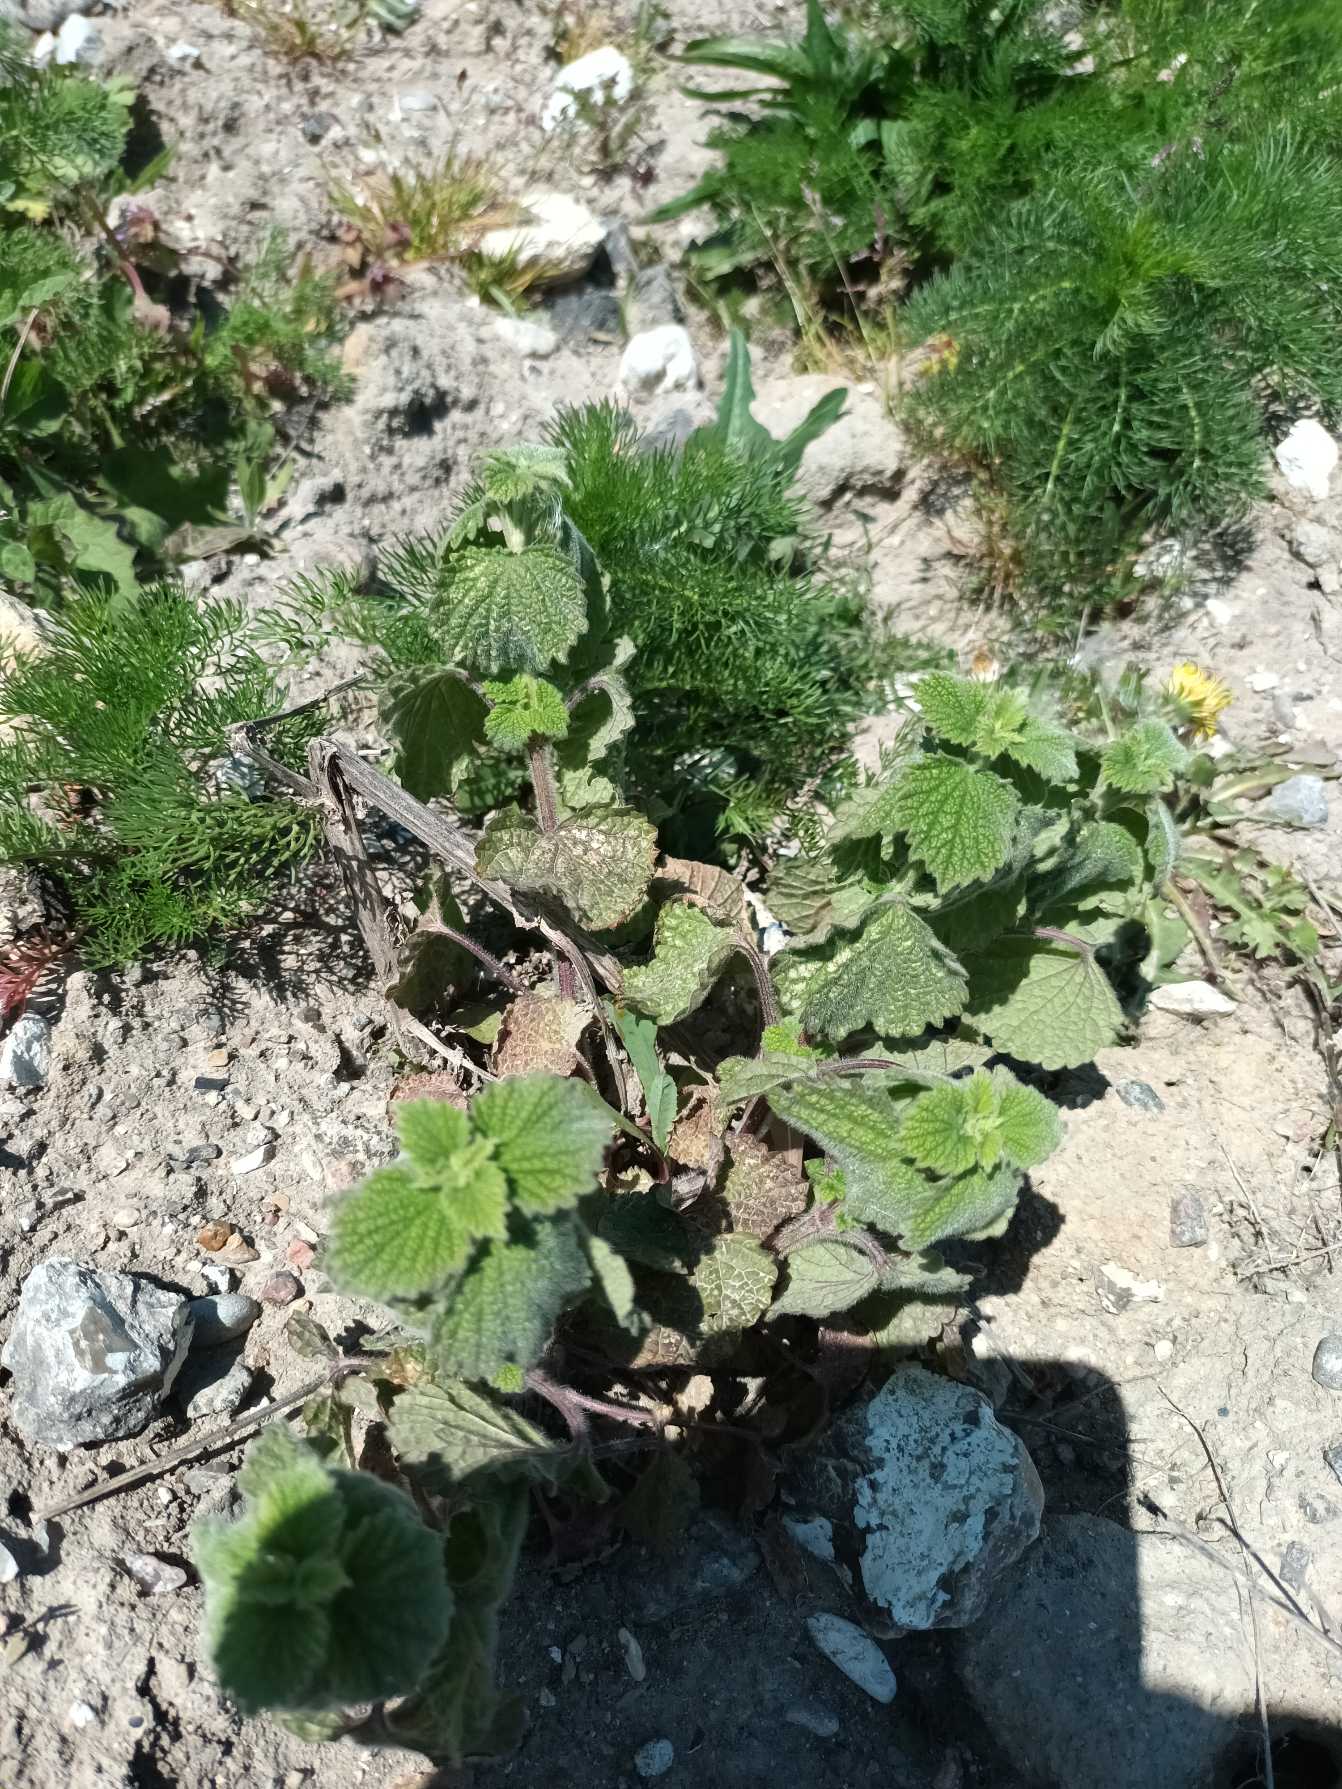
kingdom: Plantae
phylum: Tracheophyta
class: Magnoliopsida
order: Lamiales
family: Lamiaceae
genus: Ballota
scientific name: Ballota nigra
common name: Tandbæger
